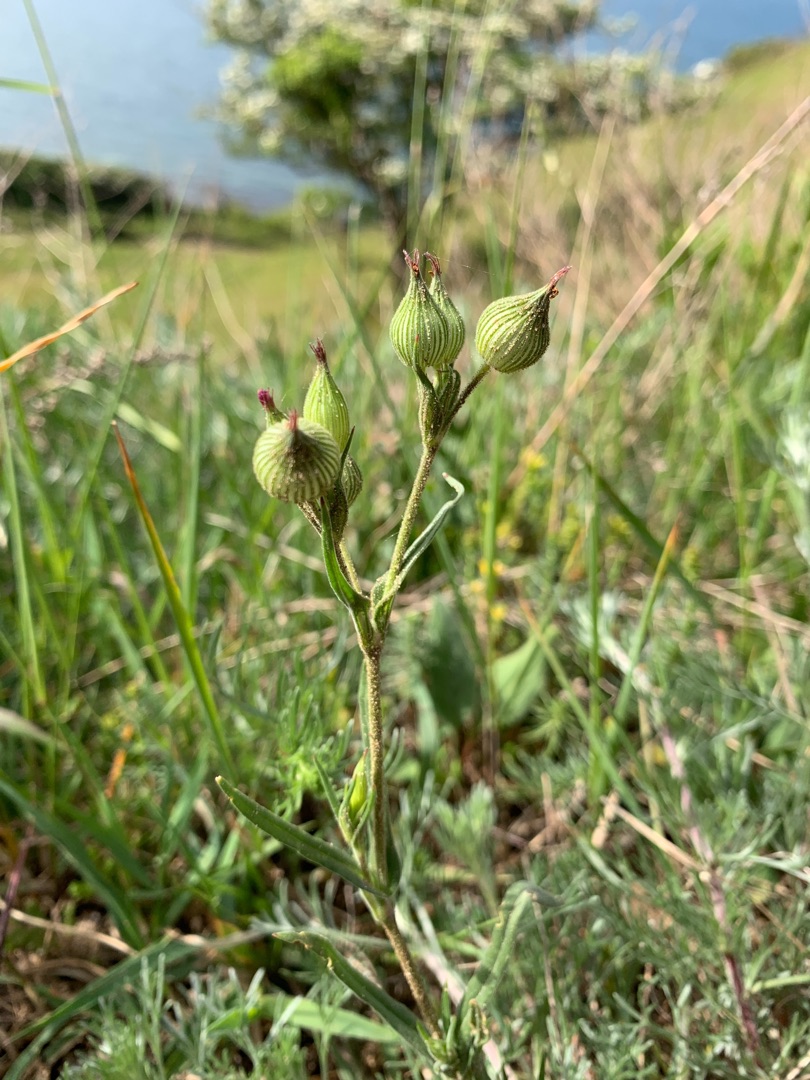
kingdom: Plantae
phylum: Tracheophyta
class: Magnoliopsida
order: Caryophyllales
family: Caryophyllaceae
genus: Silene
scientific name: Silene conica
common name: Kegle-limurt
